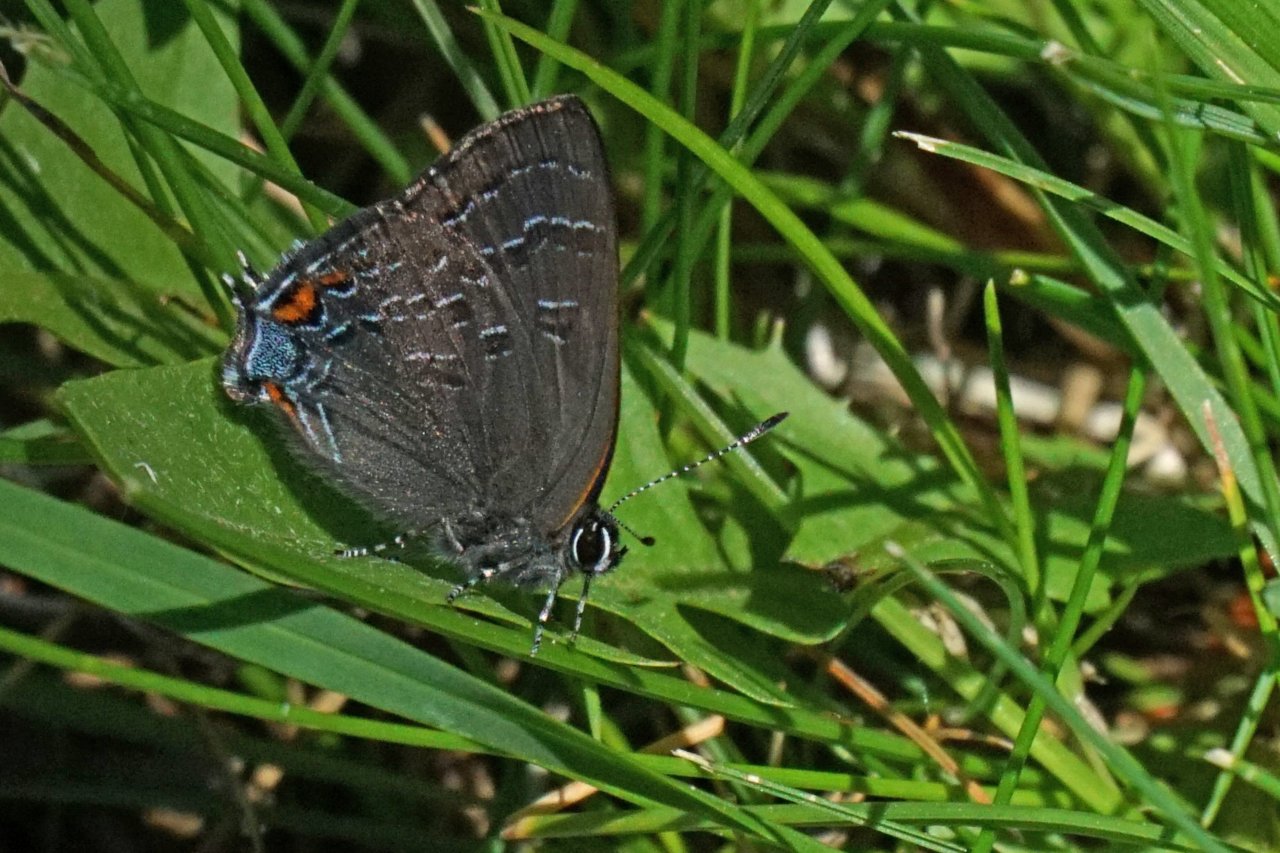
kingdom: Animalia
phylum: Arthropoda
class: Insecta
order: Lepidoptera
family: Lycaenidae
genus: Satyrium
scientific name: Satyrium calanus
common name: Banded Hairstreak
